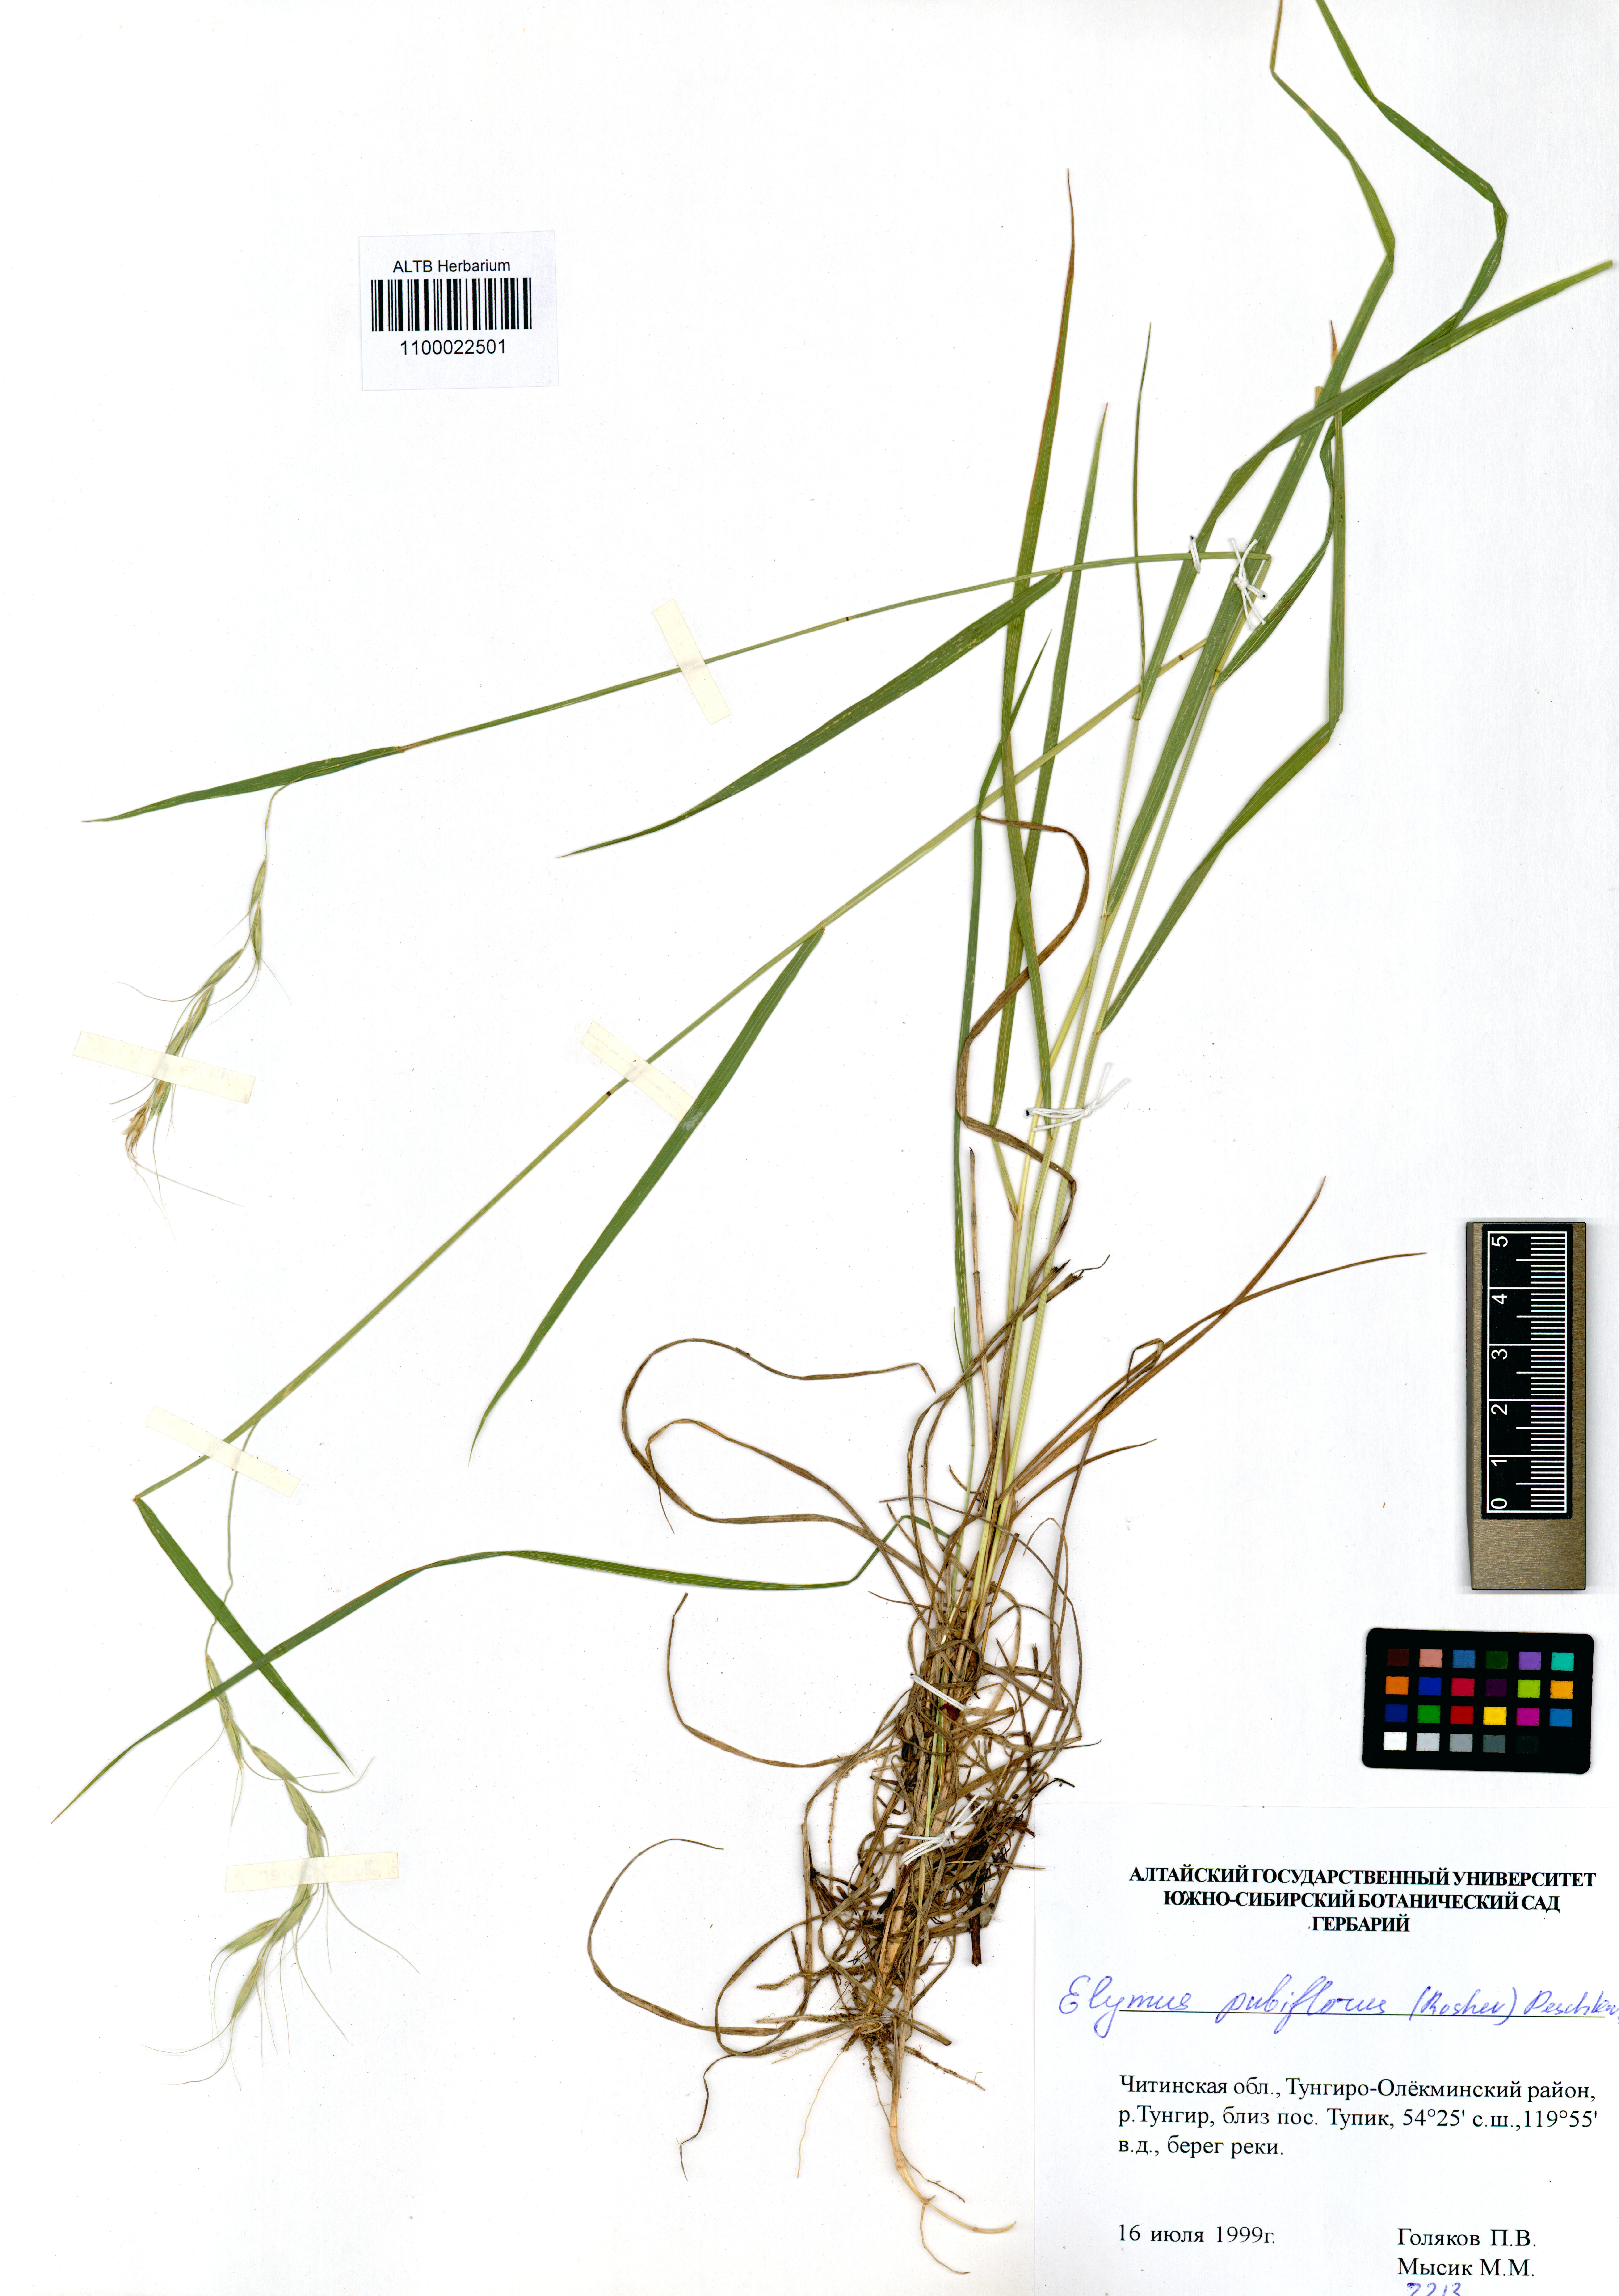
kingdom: Plantae
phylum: Tracheophyta
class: Liliopsida
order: Poales
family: Poaceae
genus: Elymus
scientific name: Elymus confusus
